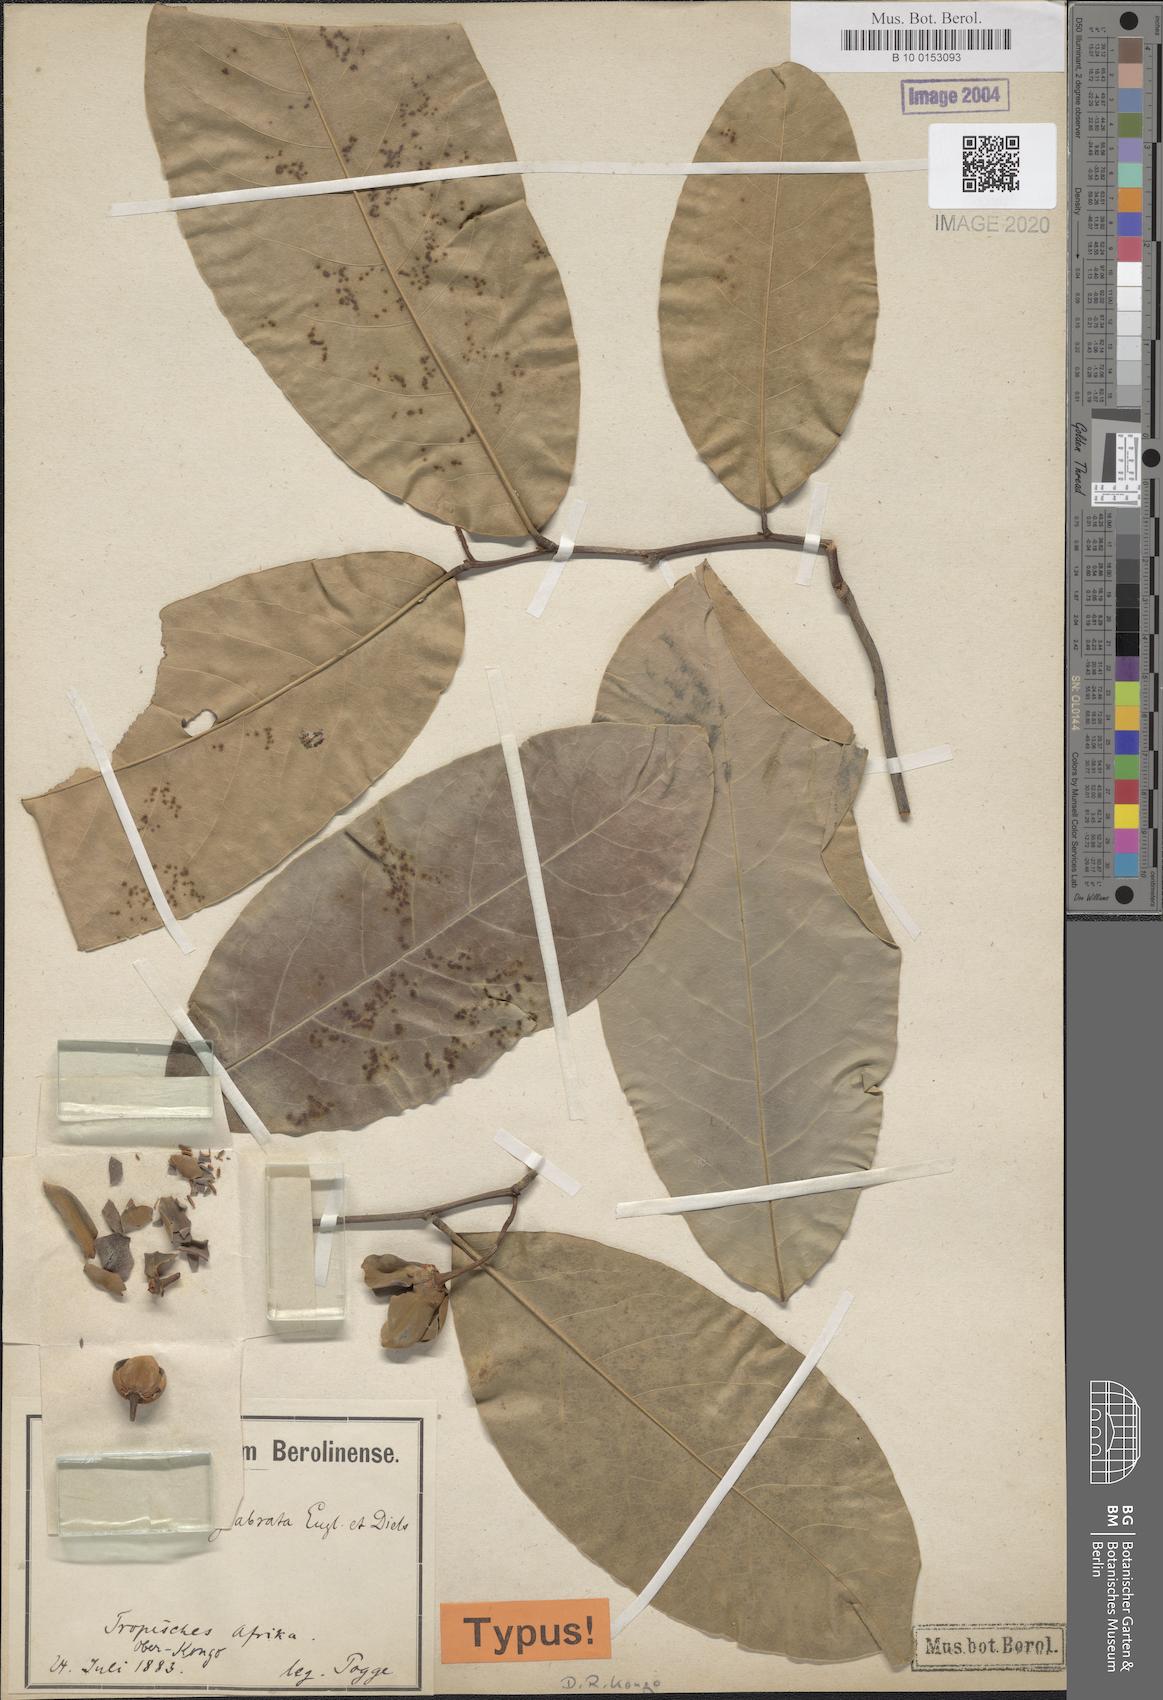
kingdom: Plantae
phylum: Tracheophyta
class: Magnoliopsida
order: Magnoliales
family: Annonaceae
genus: Uvaria
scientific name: Uvaria glabrata
